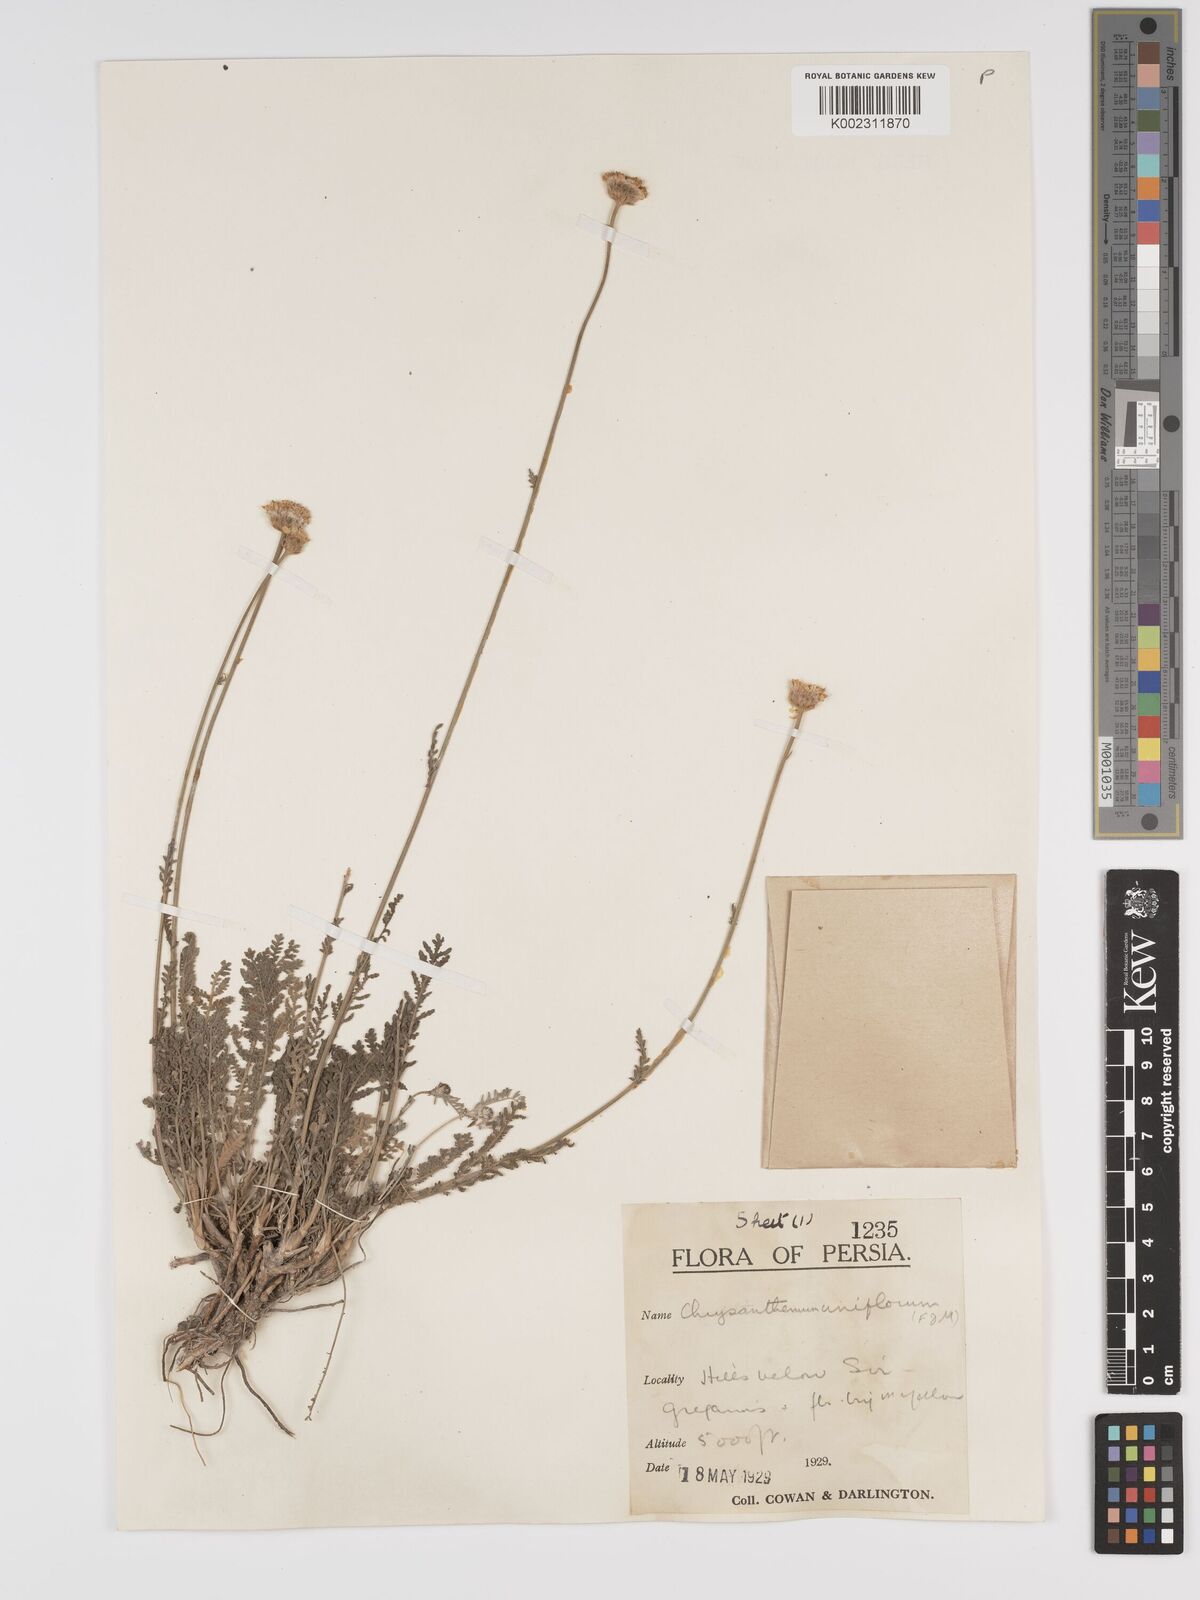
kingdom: Plantae
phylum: Tracheophyta
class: Magnoliopsida
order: Asterales
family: Asteraceae
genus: Tanacetum
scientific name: Tanacetum uniflorum
